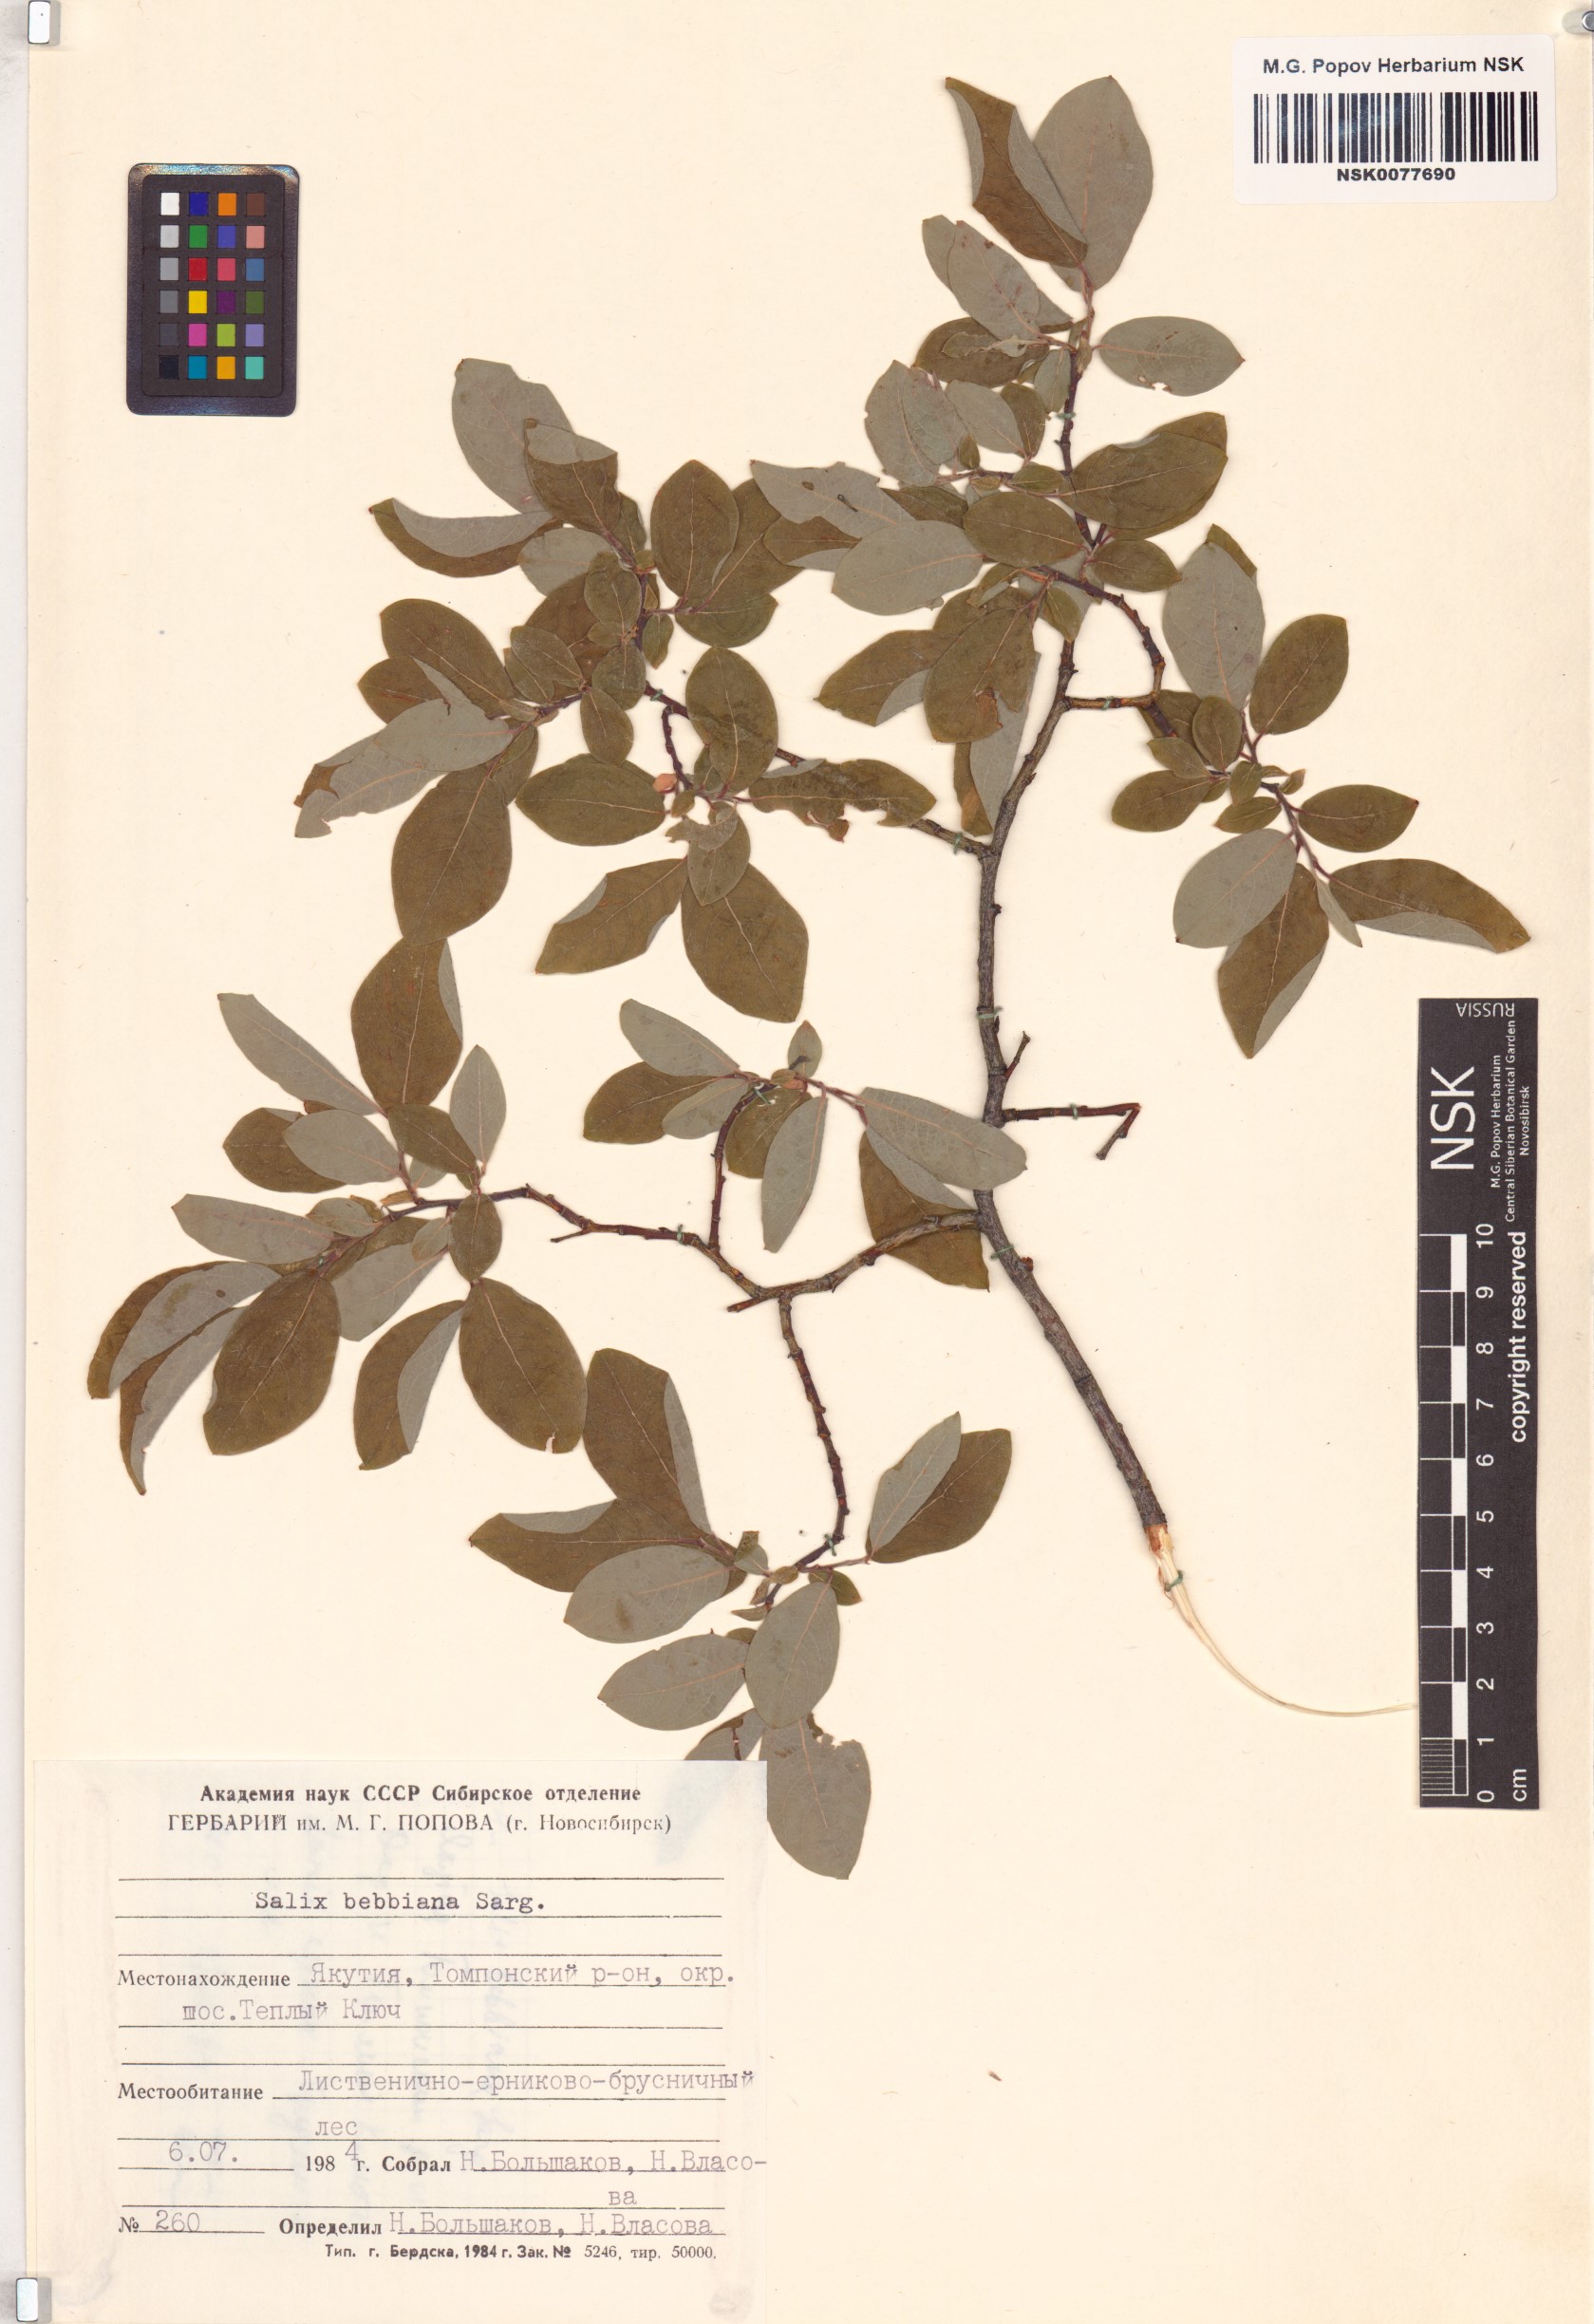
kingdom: Plantae
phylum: Tracheophyta
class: Magnoliopsida
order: Malpighiales
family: Salicaceae
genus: Salix
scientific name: Salix bebbiana
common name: Bebb's willow
